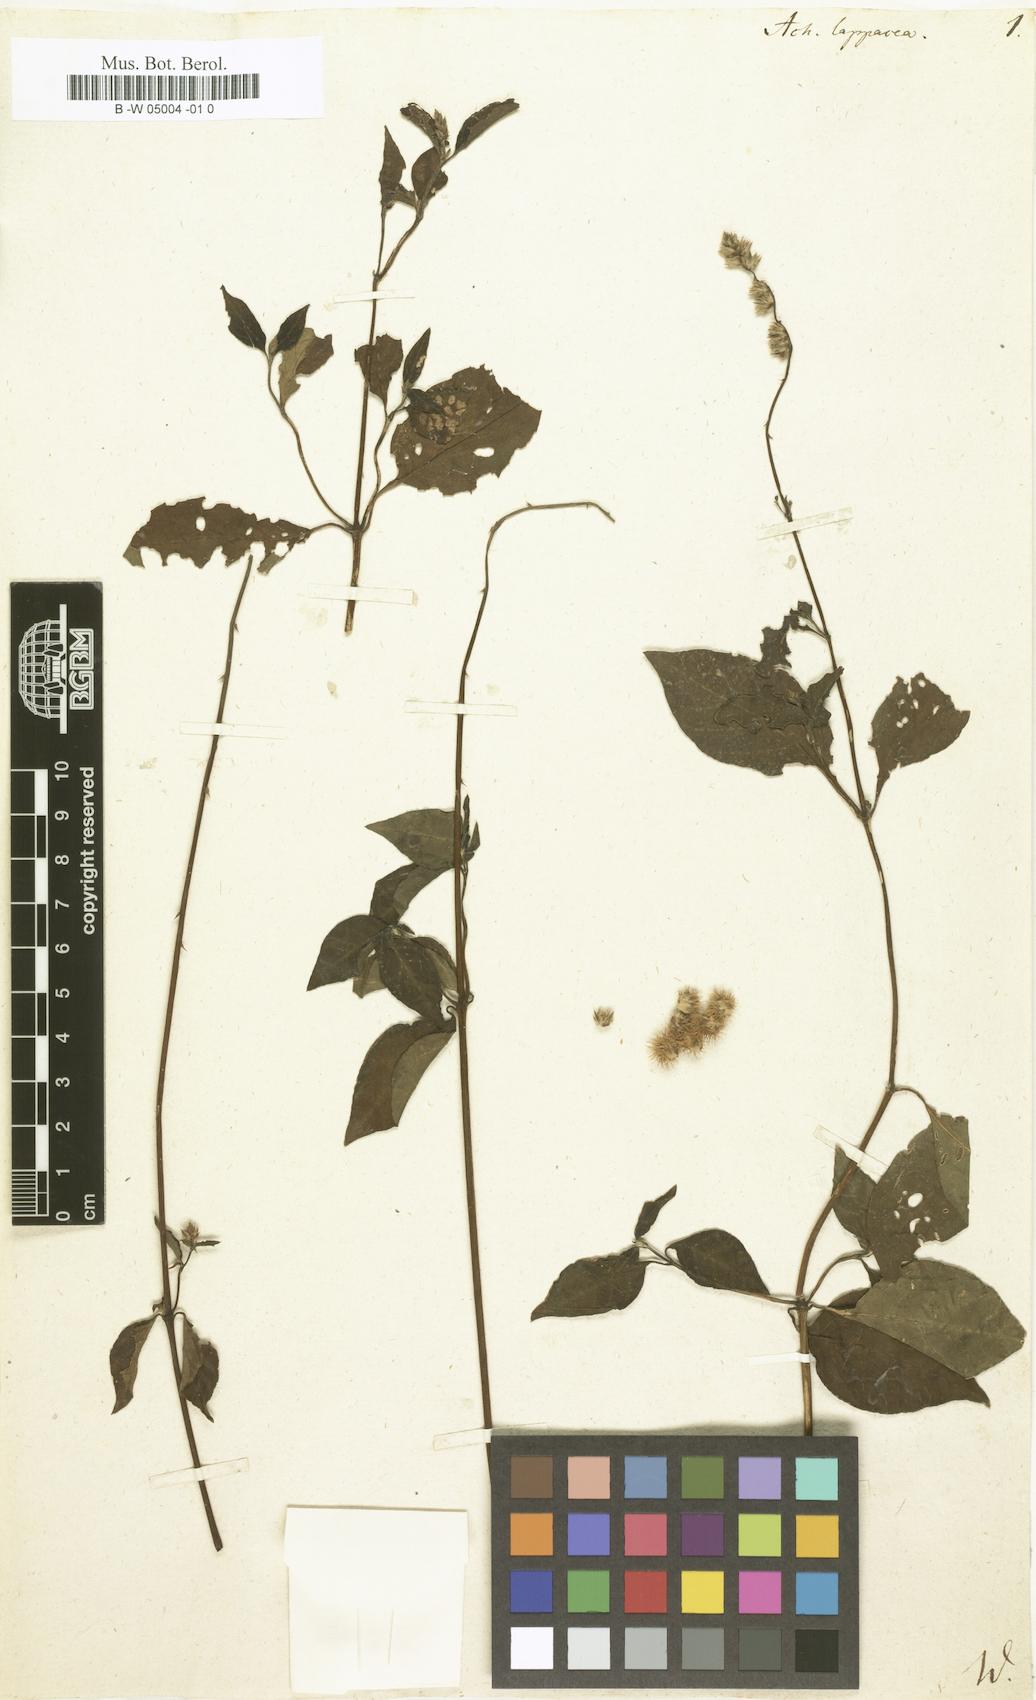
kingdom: Plantae
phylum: Tracheophyta
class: Magnoliopsida
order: Caryophyllales
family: Amaranthaceae
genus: Pupalia
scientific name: Pupalia lappacea
